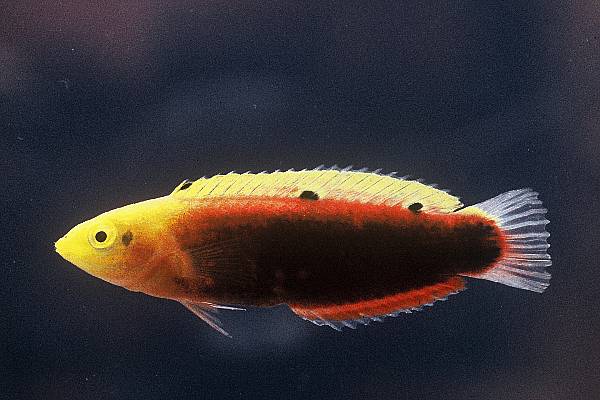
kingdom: Animalia
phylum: Chordata
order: Perciformes
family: Labridae
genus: Halichoeres
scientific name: Halichoeres iridis
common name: Rainbow wrasse
